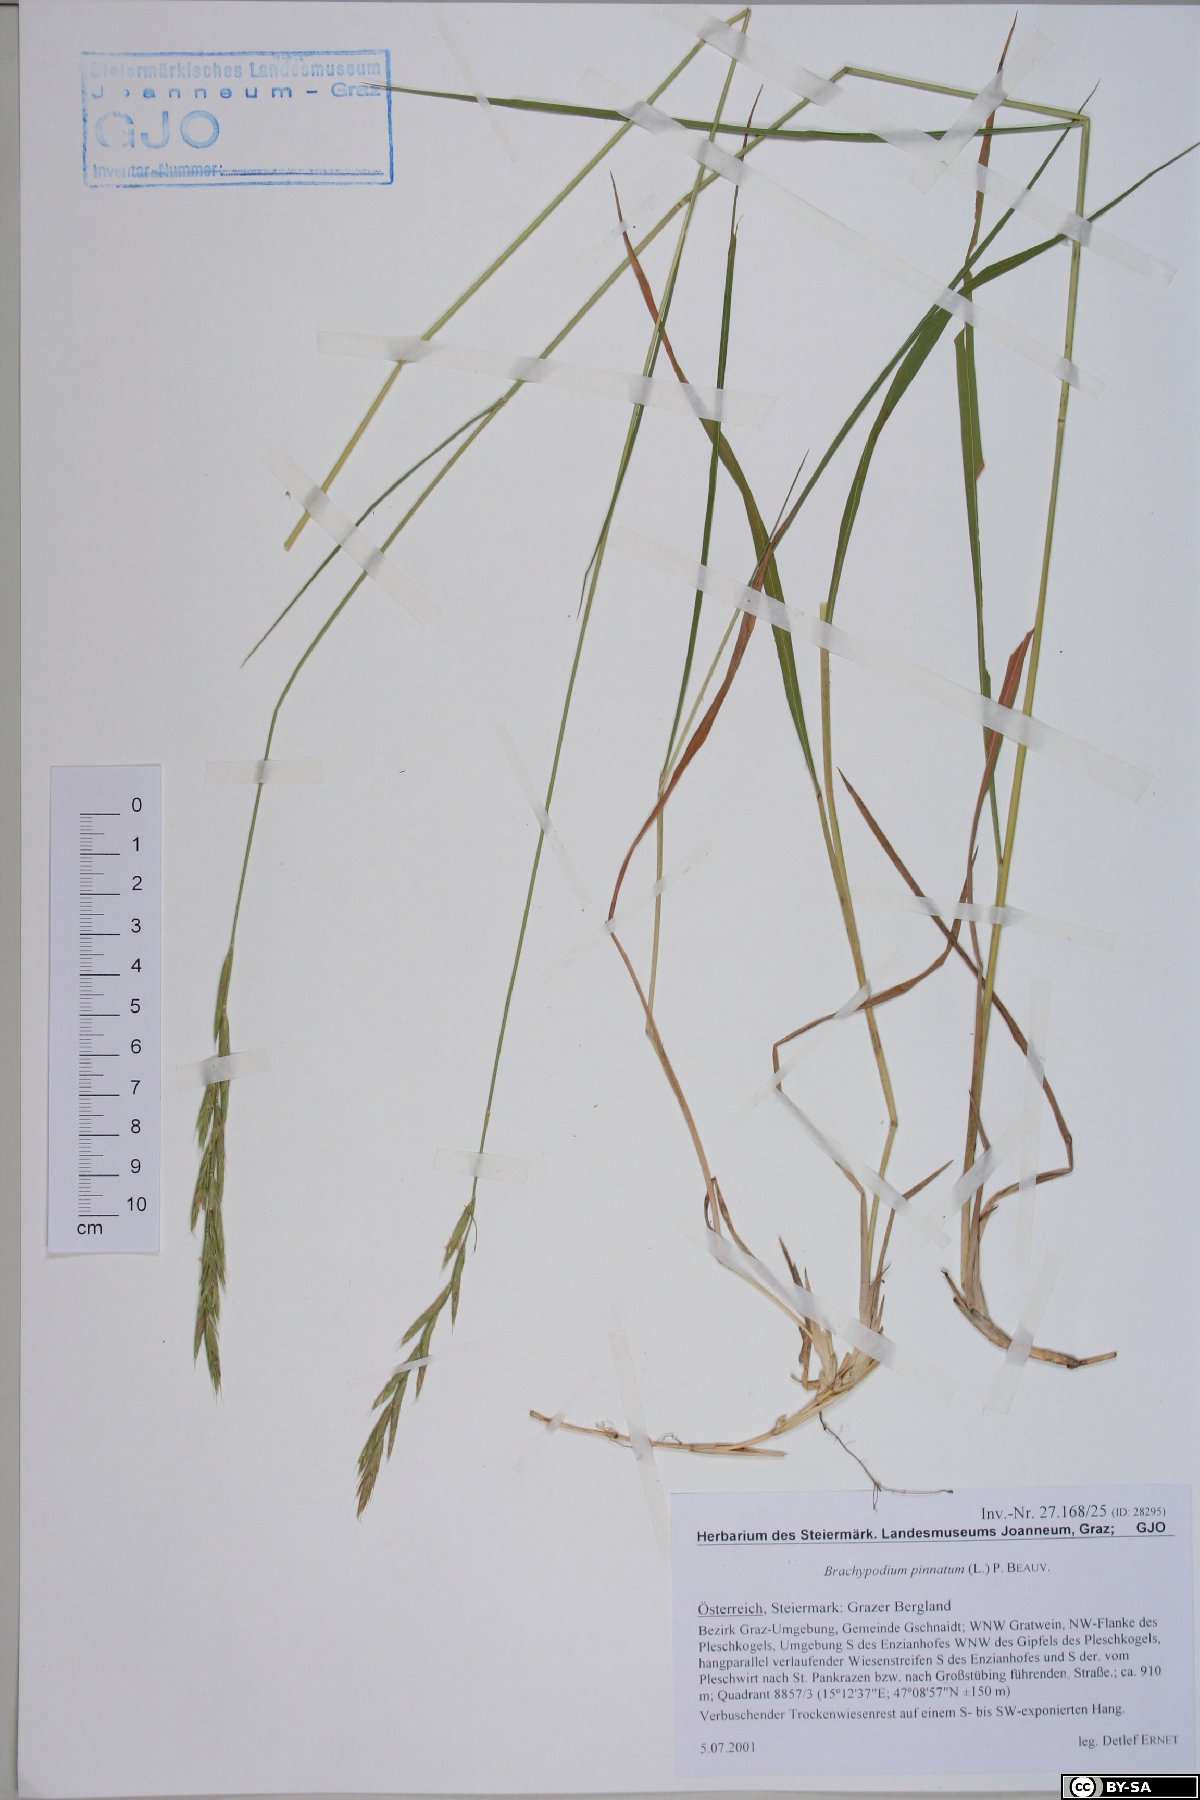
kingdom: Plantae
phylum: Tracheophyta
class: Liliopsida
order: Poales
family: Poaceae
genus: Brachypodium
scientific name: Brachypodium pinnatum
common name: Tor grass
